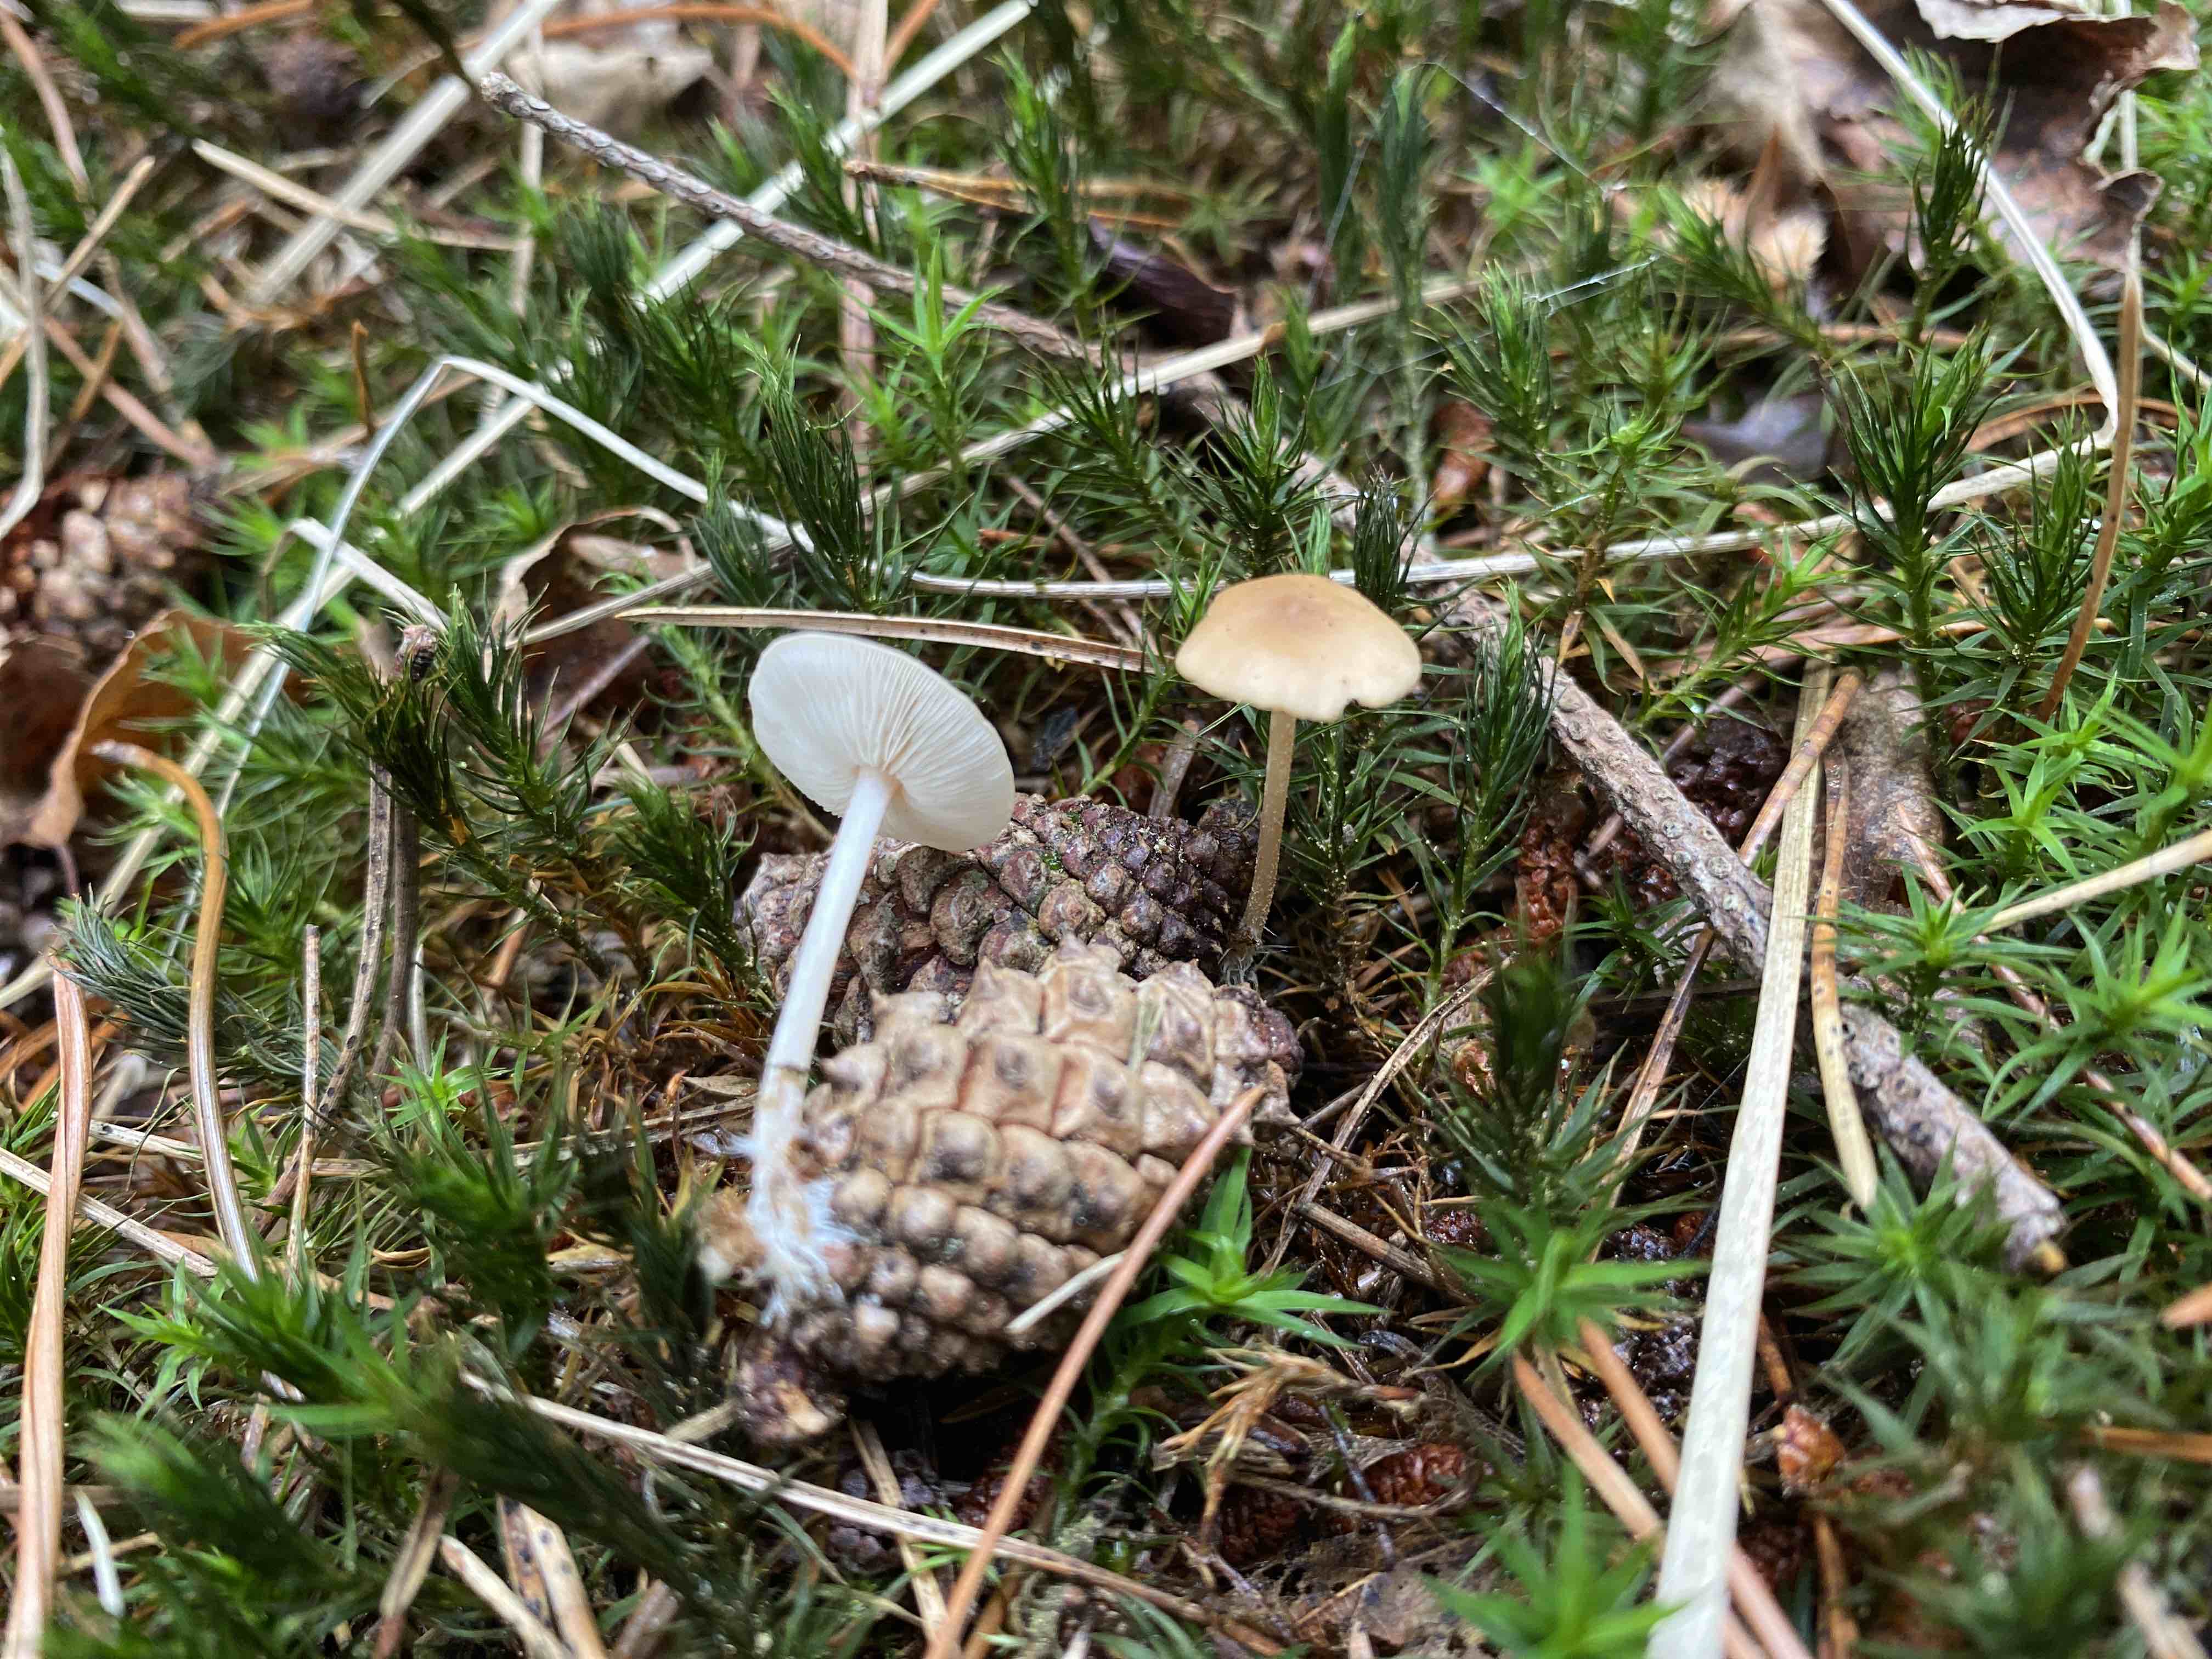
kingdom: Fungi
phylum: Basidiomycota
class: Agaricomycetes
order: Agaricales
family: Marasmiaceae
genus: Baeospora
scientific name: Baeospora myosura
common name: koglebruskhat
